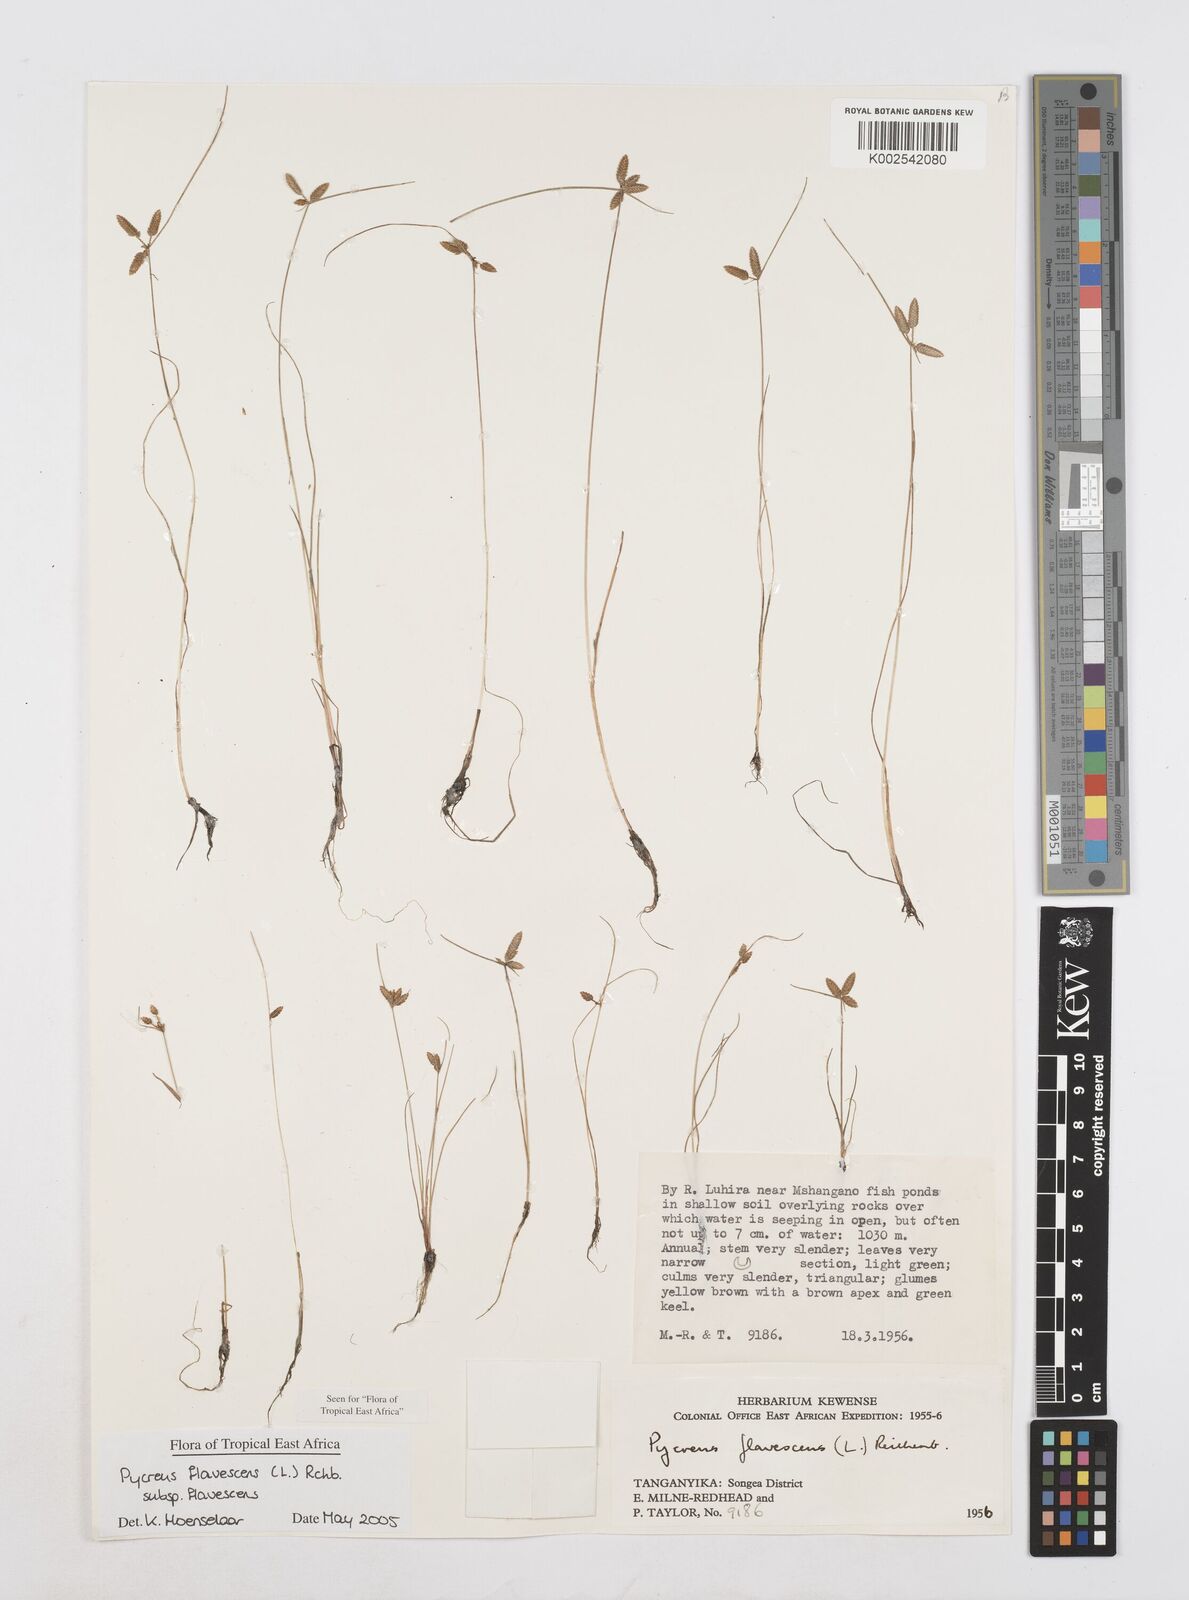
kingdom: Plantae
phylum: Tracheophyta
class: Liliopsida
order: Poales
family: Cyperaceae
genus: Cyperus
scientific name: Cyperus flavescens
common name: Yellow galingale
